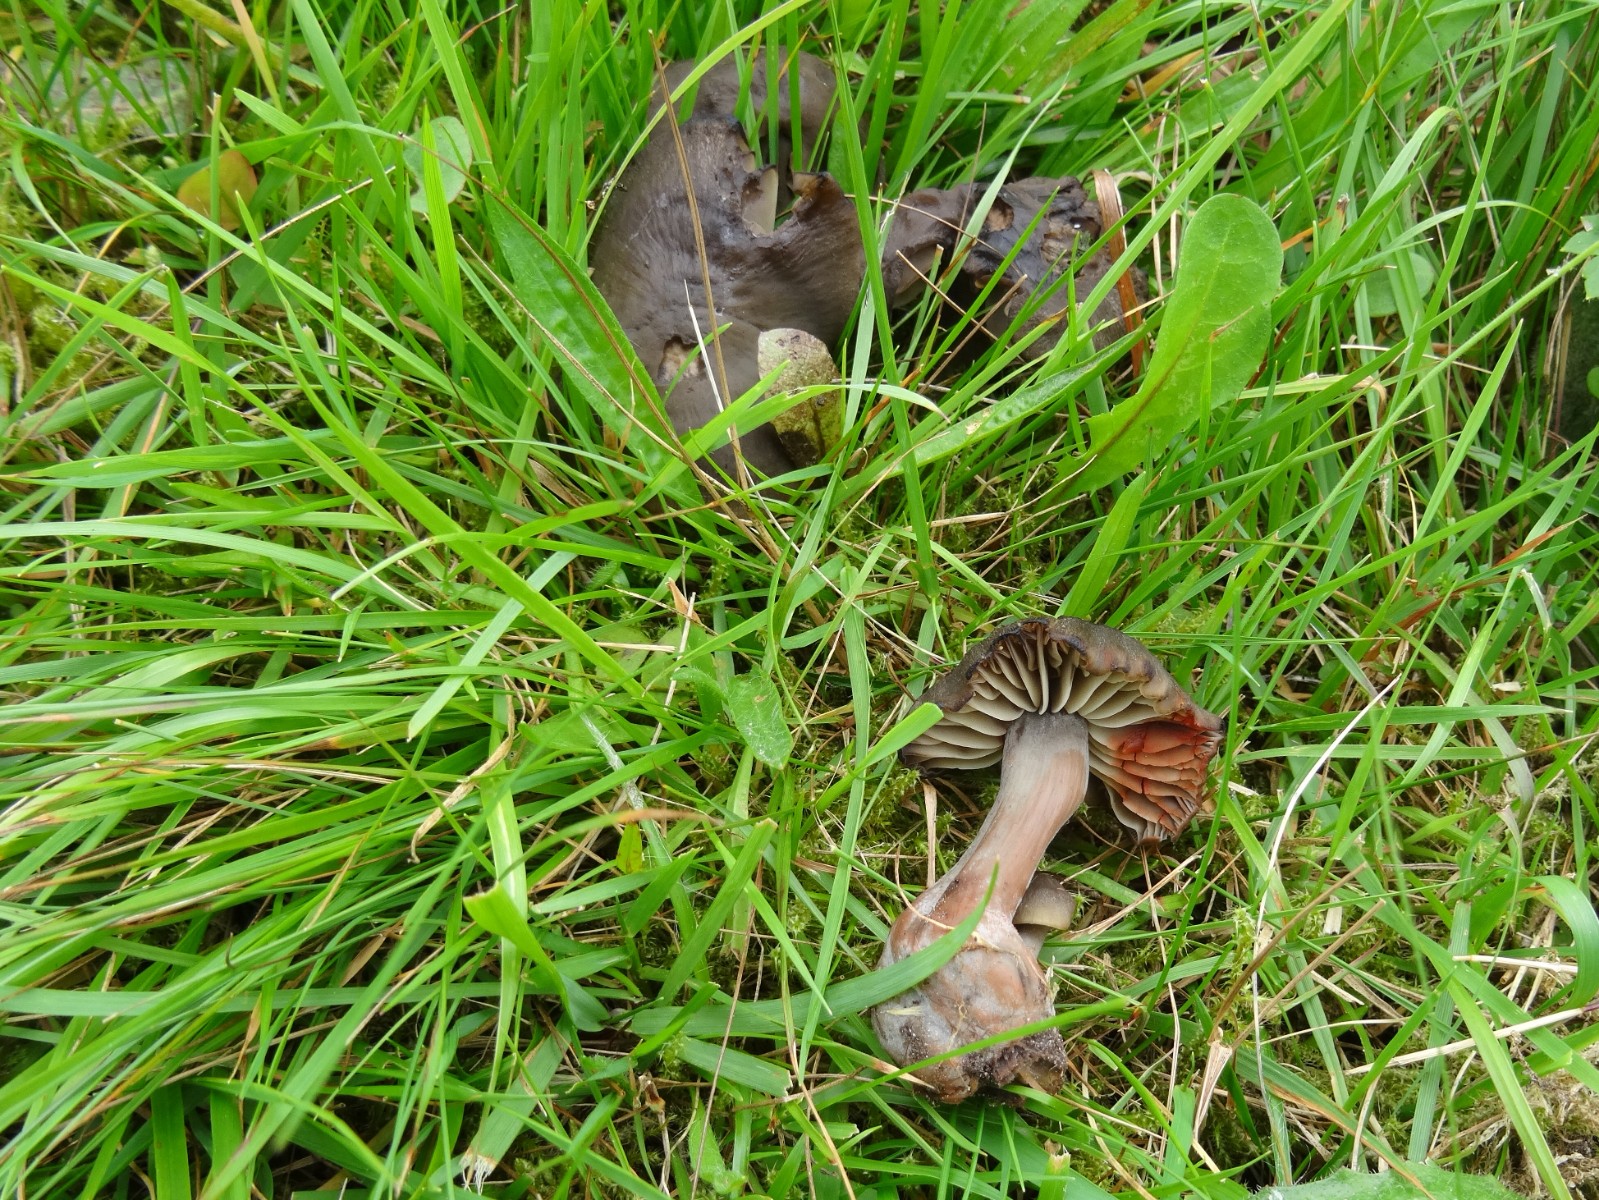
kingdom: Fungi
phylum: Basidiomycota
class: Agaricomycetes
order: Agaricales
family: Hygrophoraceae
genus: Neohygrocybe
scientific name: Neohygrocybe ovina
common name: rødmende vokshat
